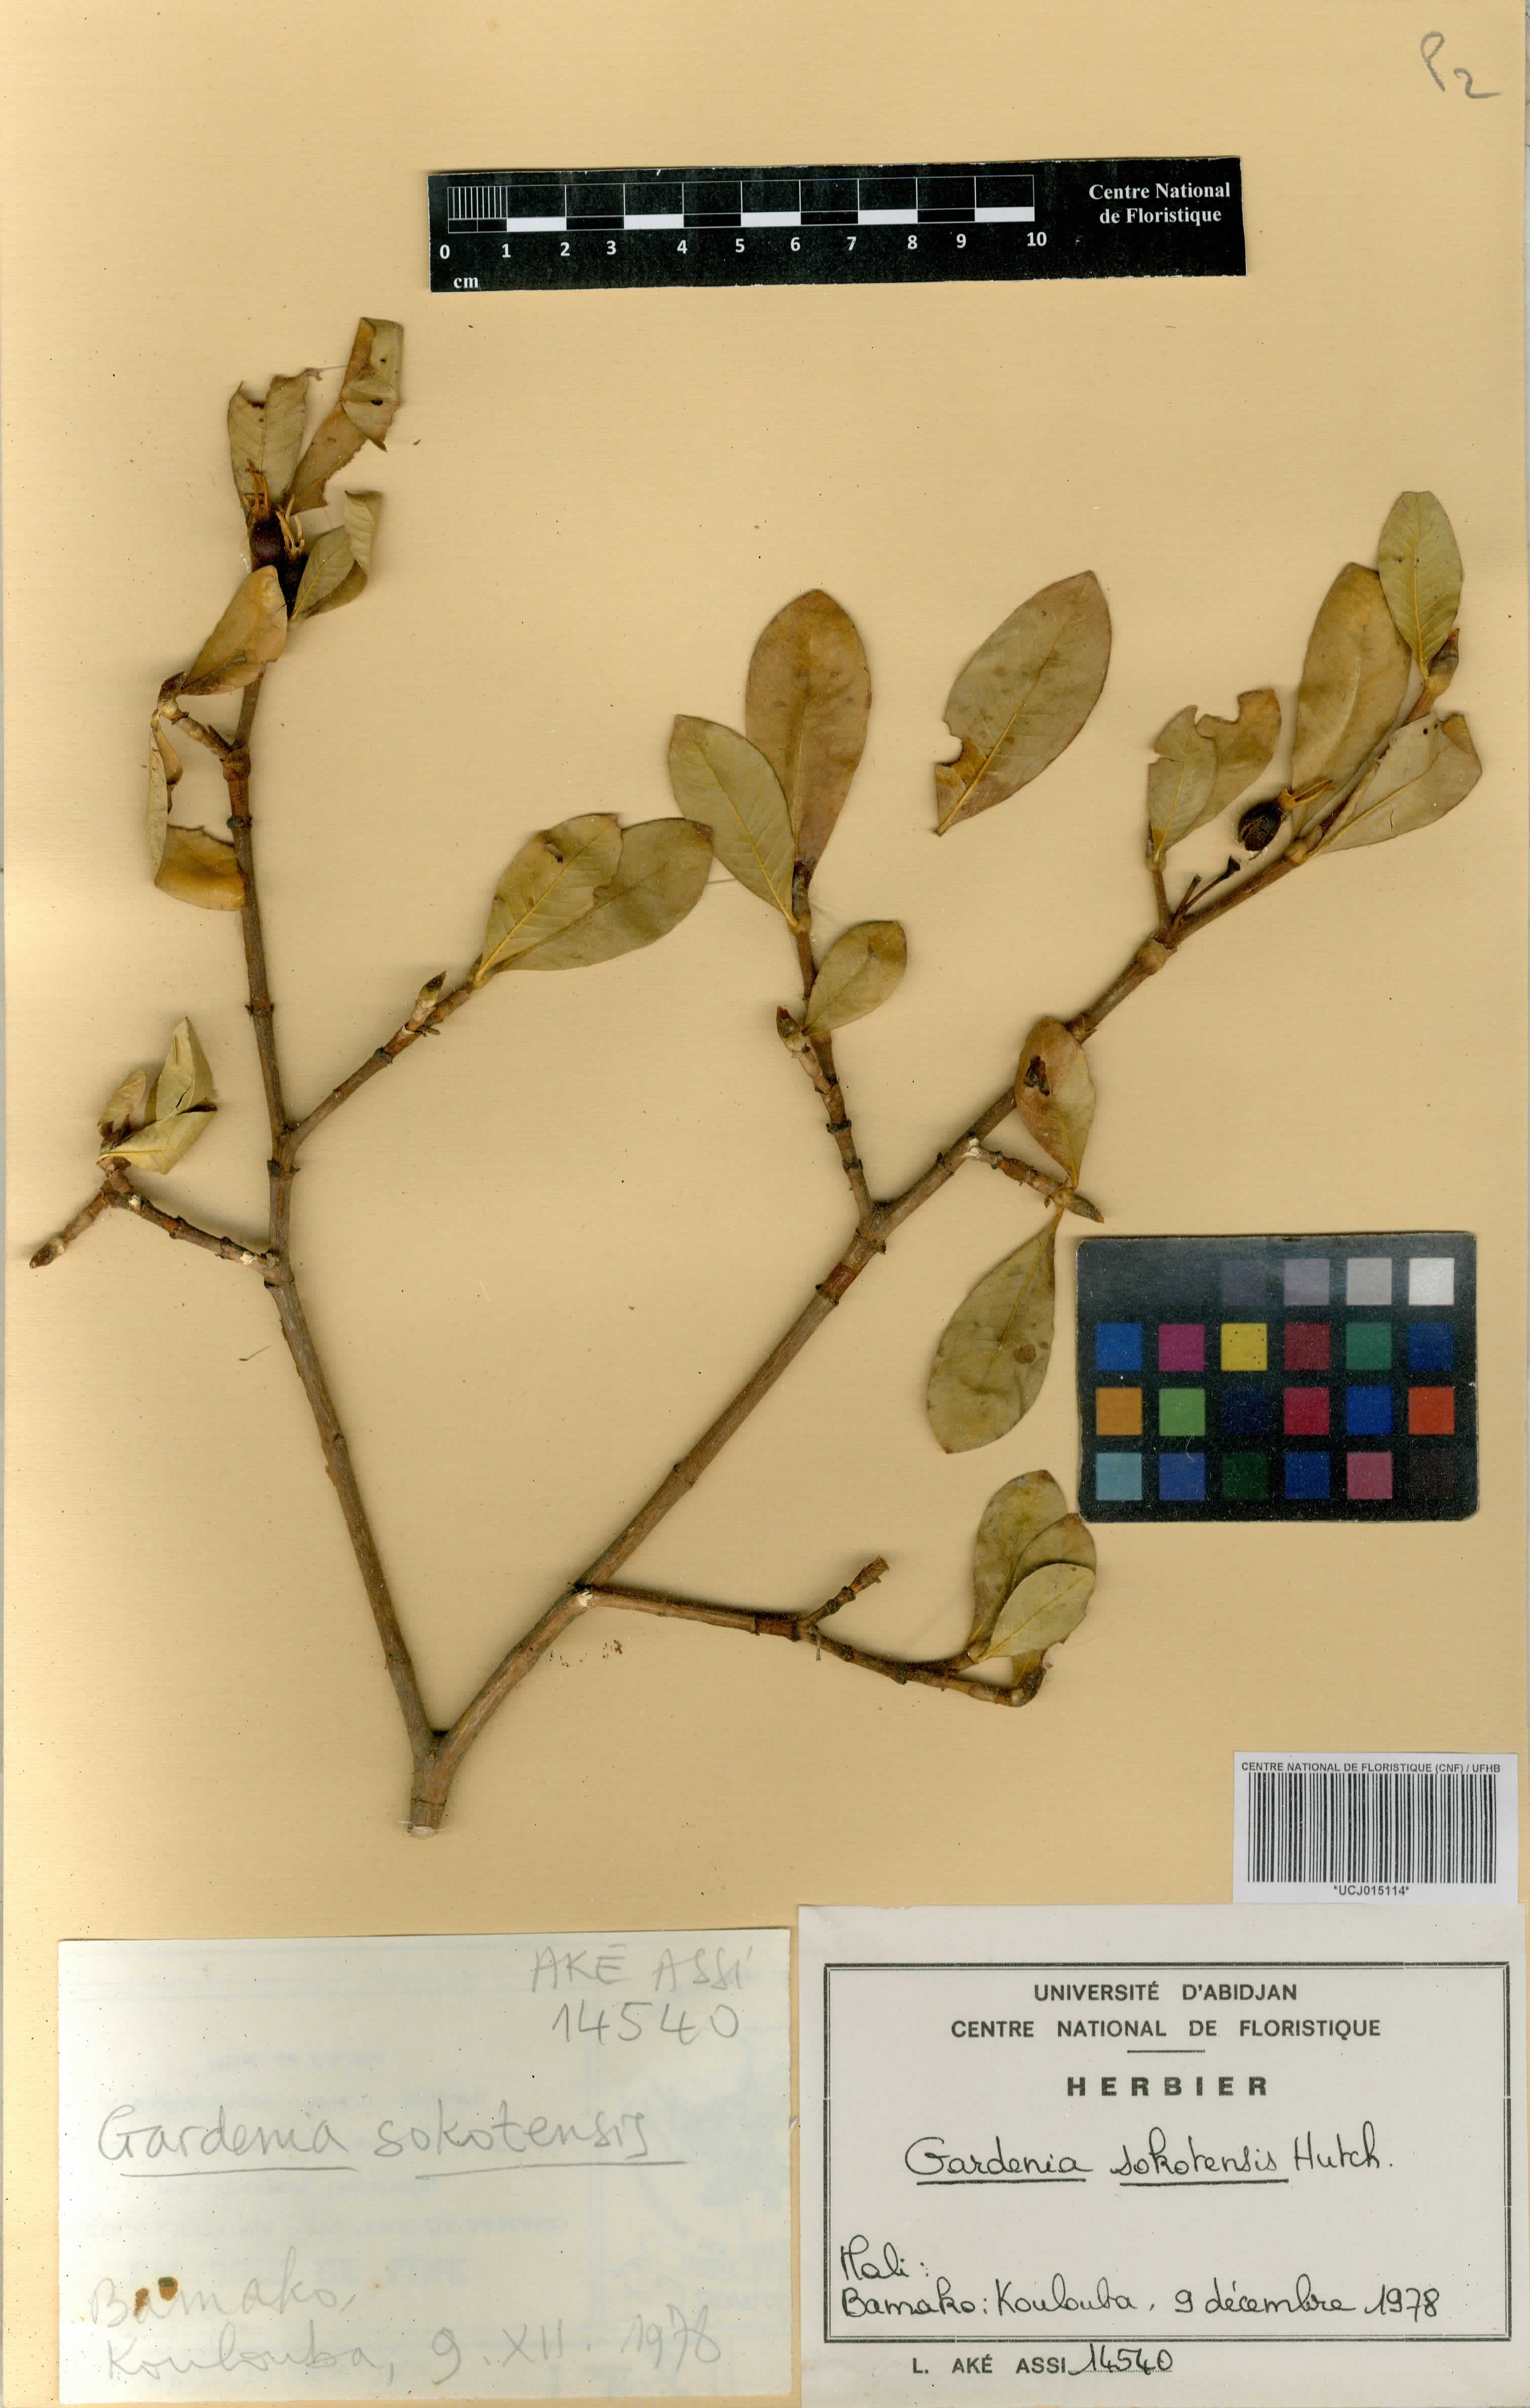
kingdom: Plantae
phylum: Tracheophyta
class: Magnoliopsida
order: Gentianales
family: Rubiaceae
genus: Gardenia
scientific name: Gardenia
